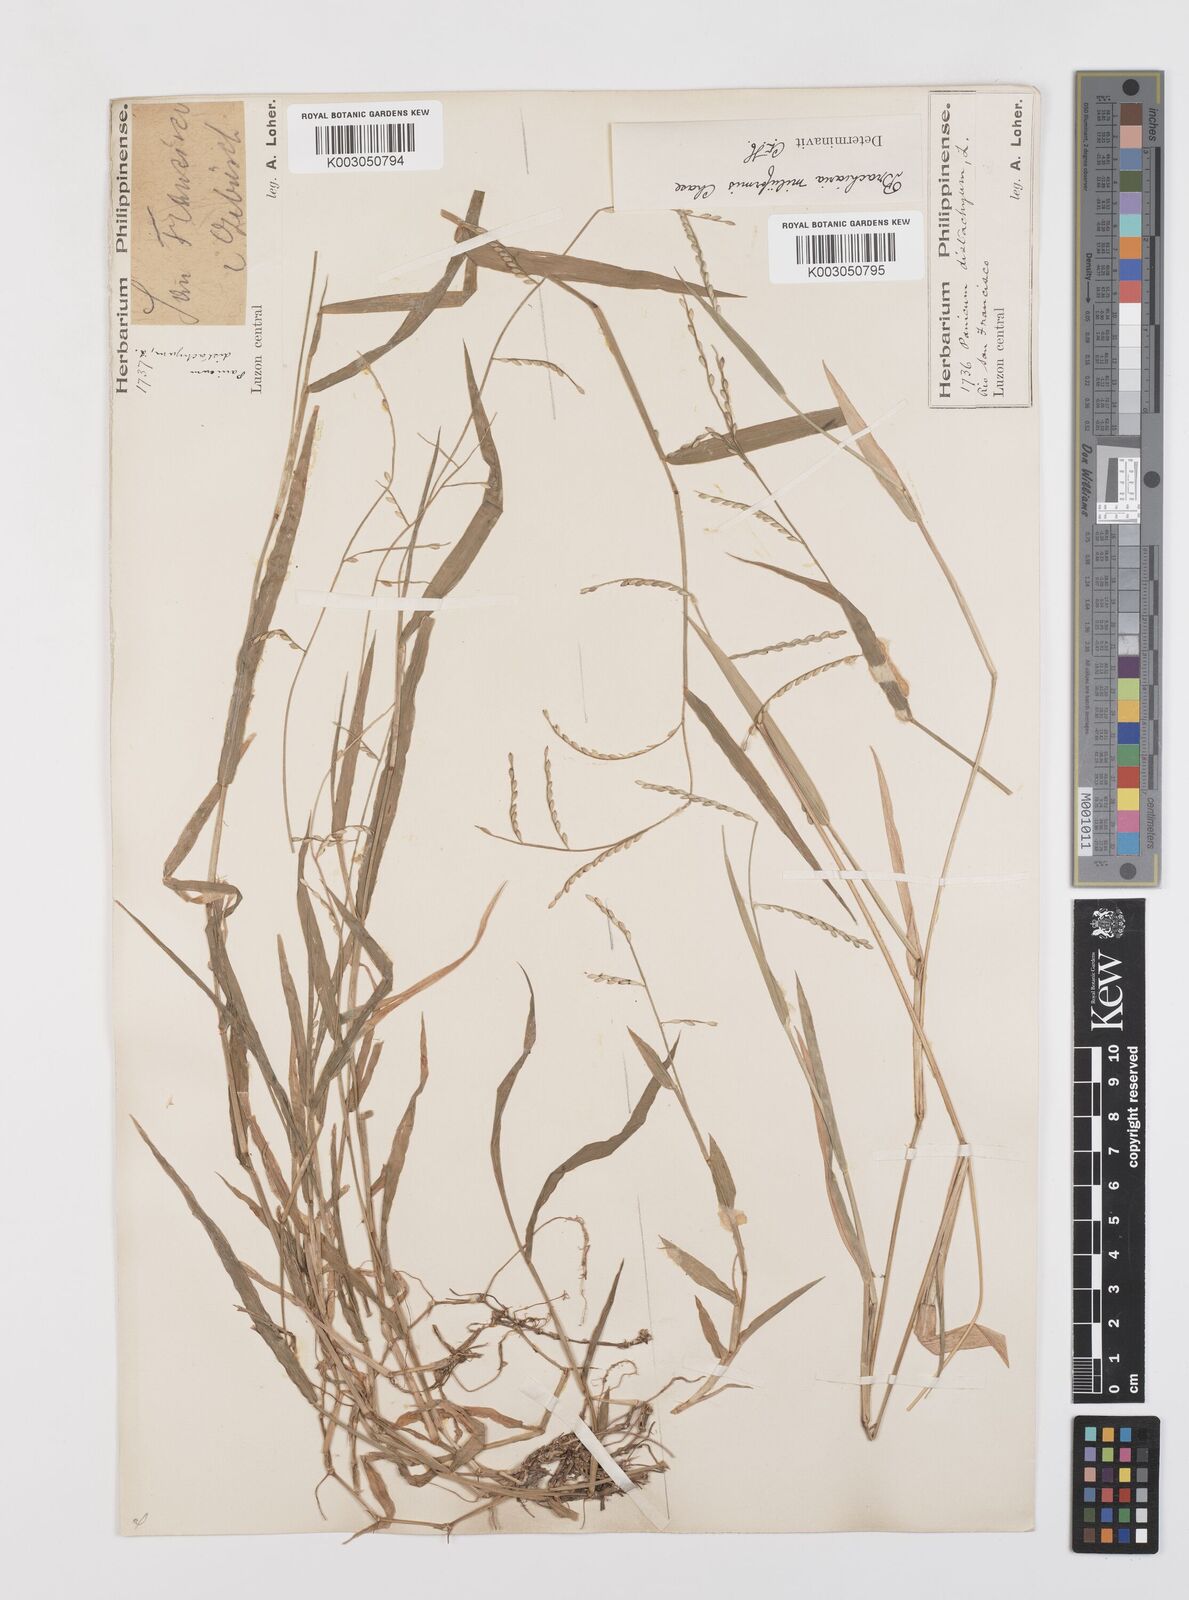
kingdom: Plantae
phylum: Tracheophyta
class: Liliopsida
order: Poales
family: Poaceae
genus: Urochloa
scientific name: Urochloa subquadripara
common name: Armgrass millet
